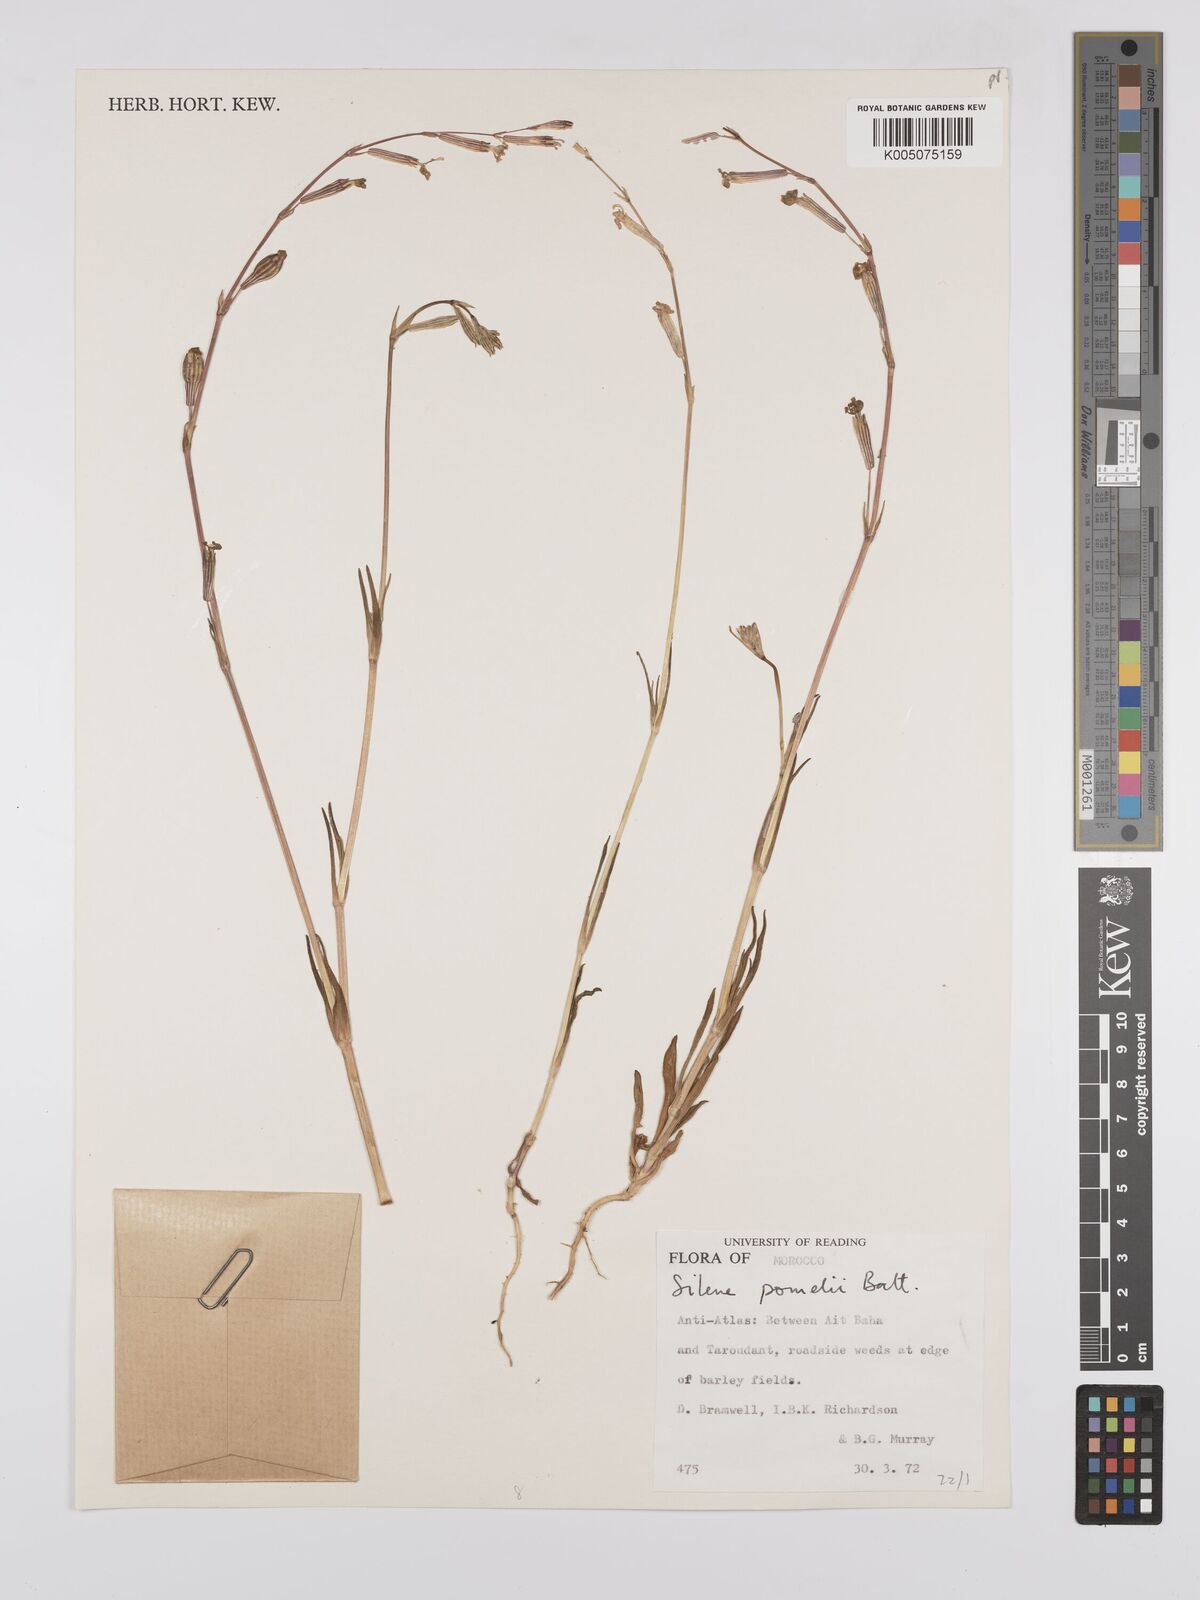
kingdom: Plantae
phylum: Tracheophyta
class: Magnoliopsida
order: Caryophyllales
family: Caryophyllaceae
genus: Silene
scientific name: Silene pomelii
